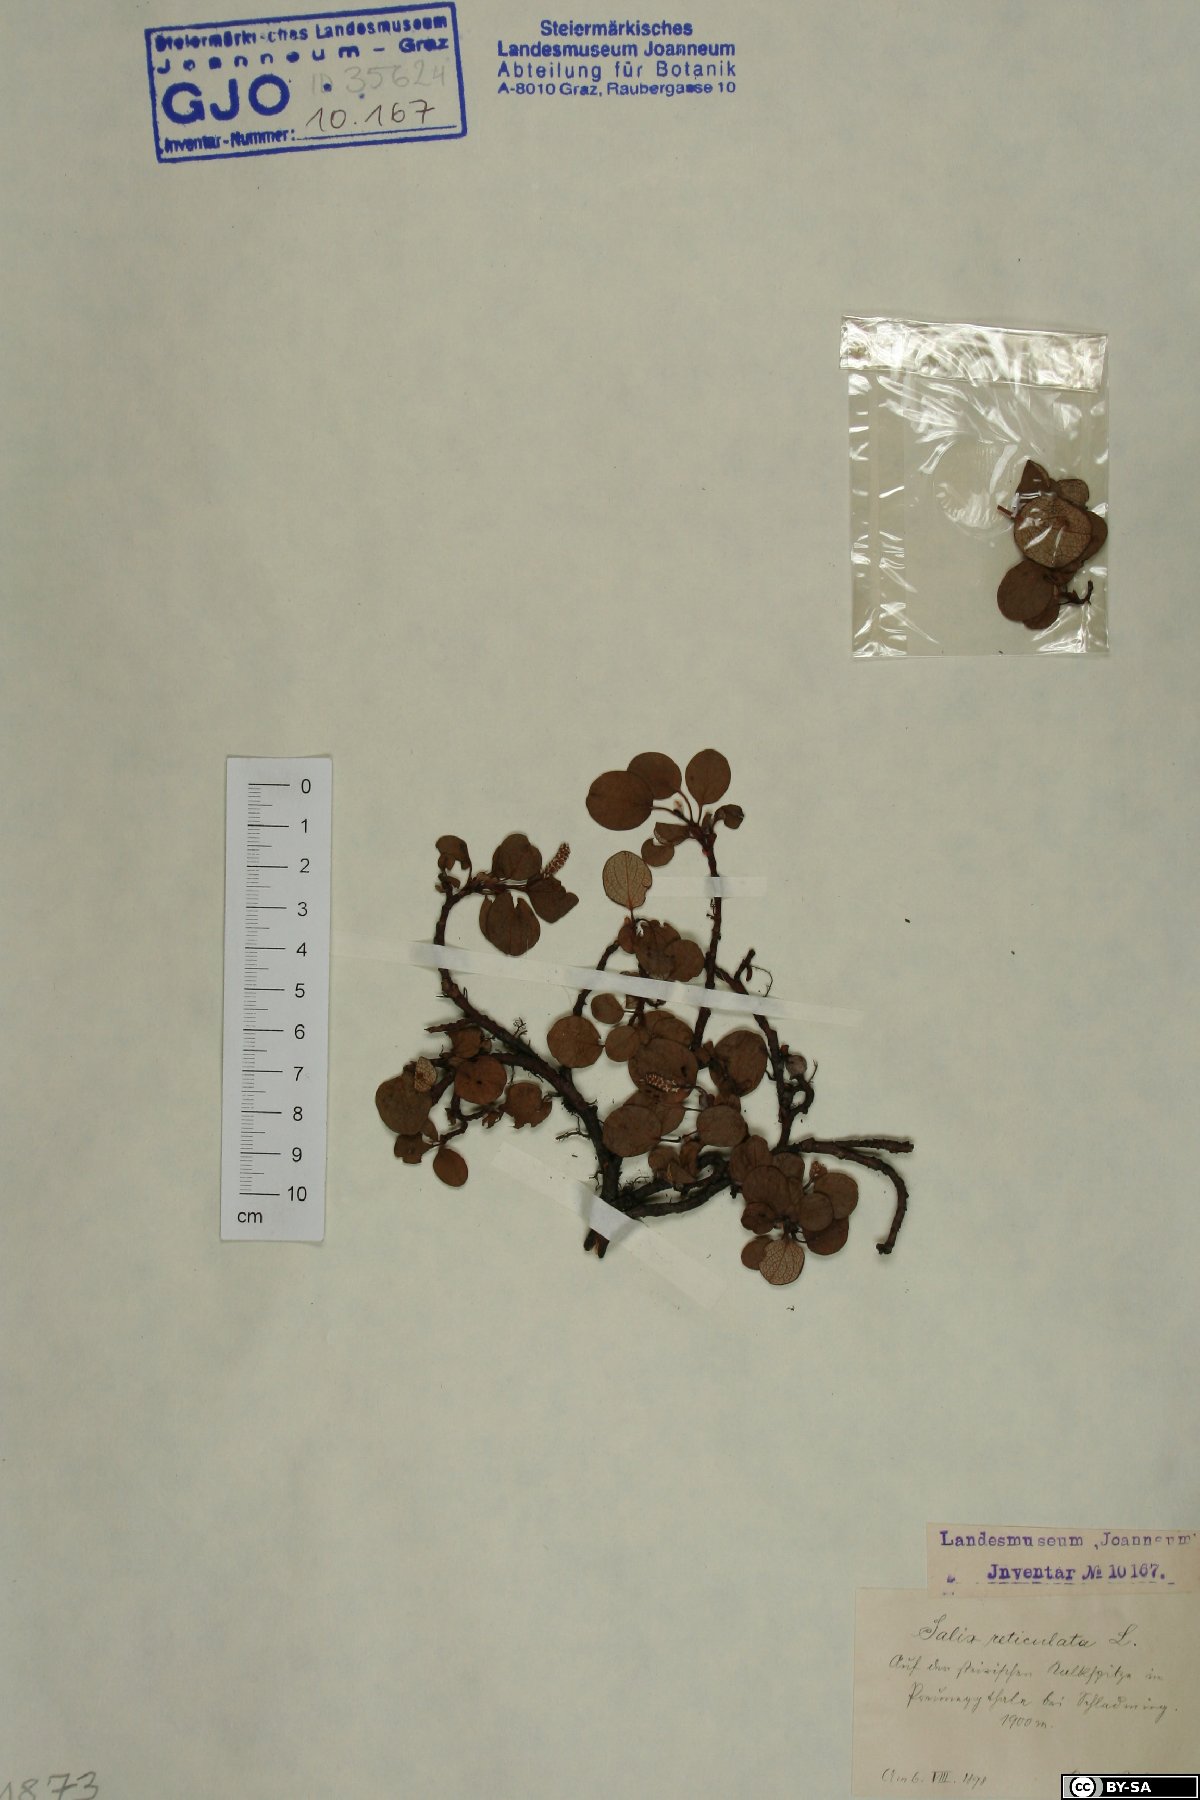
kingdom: Plantae
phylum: Tracheophyta
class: Magnoliopsida
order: Malpighiales
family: Salicaceae
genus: Salix
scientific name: Salix reticulata
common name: Net-leaved willow
